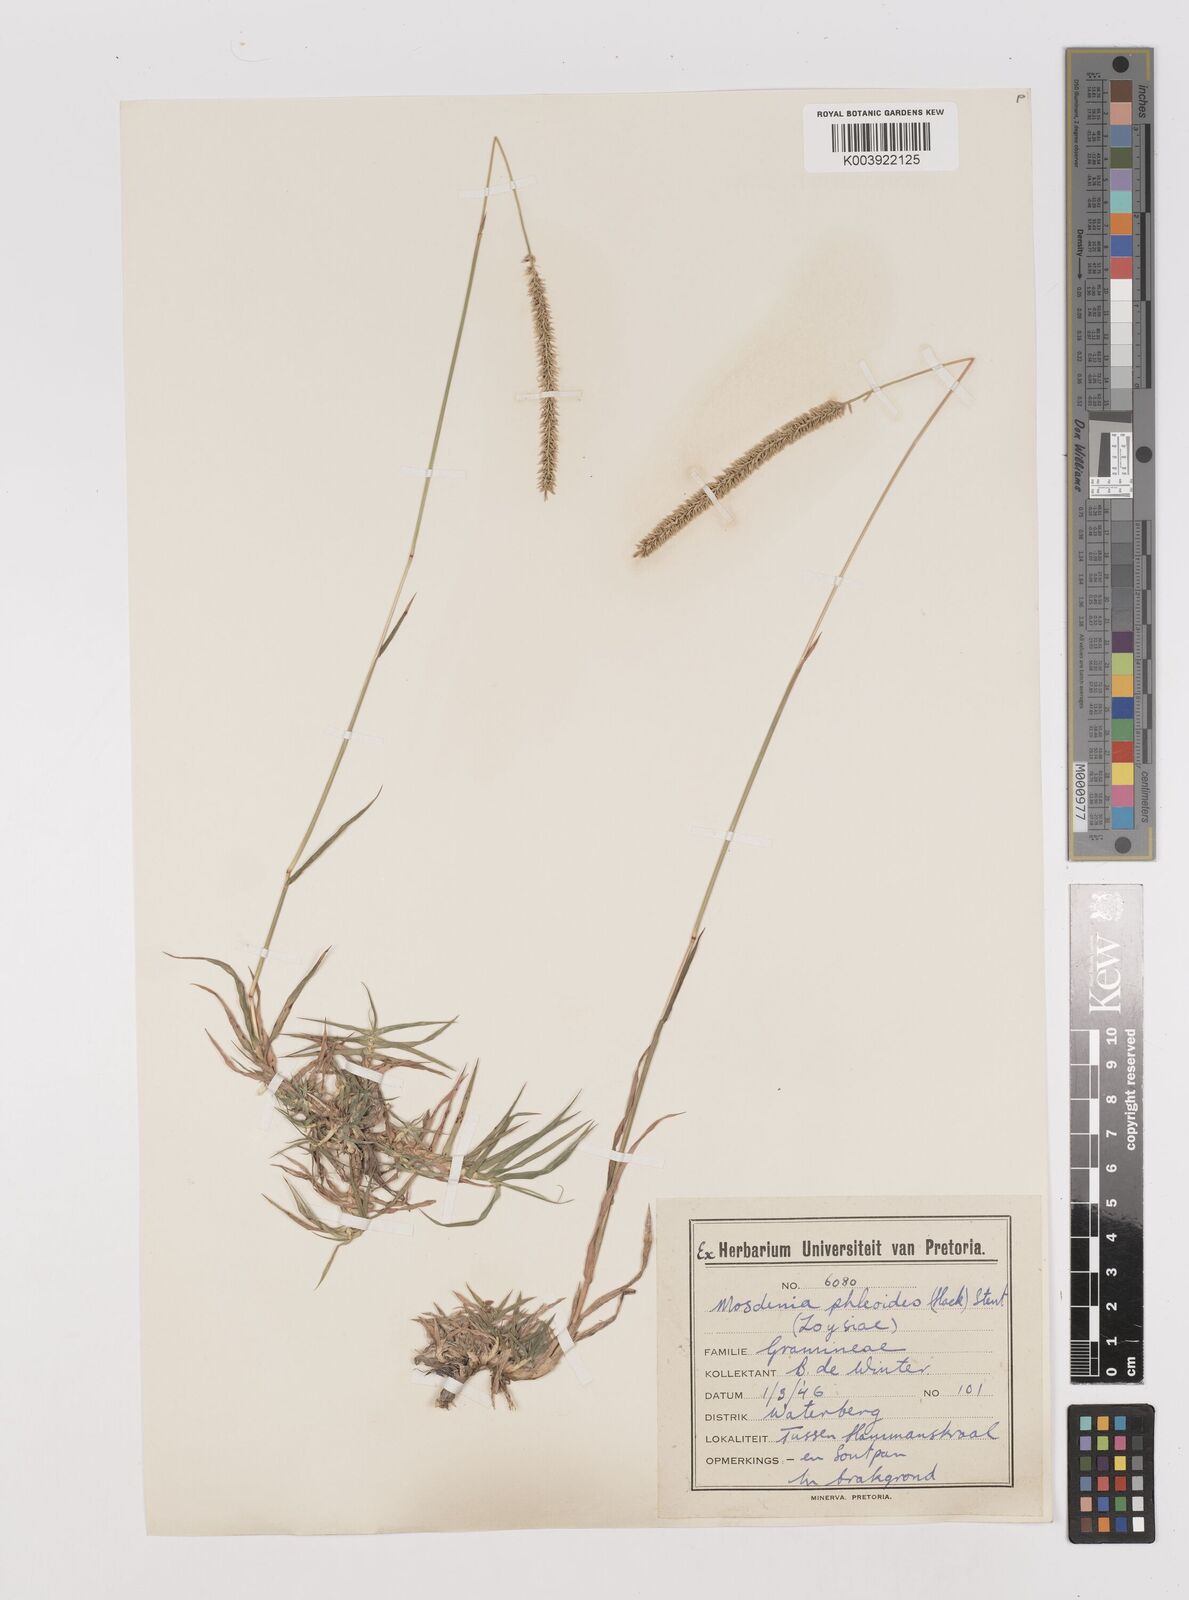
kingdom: Plantae
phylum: Tracheophyta
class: Liliopsida
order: Poales
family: Poaceae
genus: Mosdenia
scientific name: Mosdenia leptostachys
